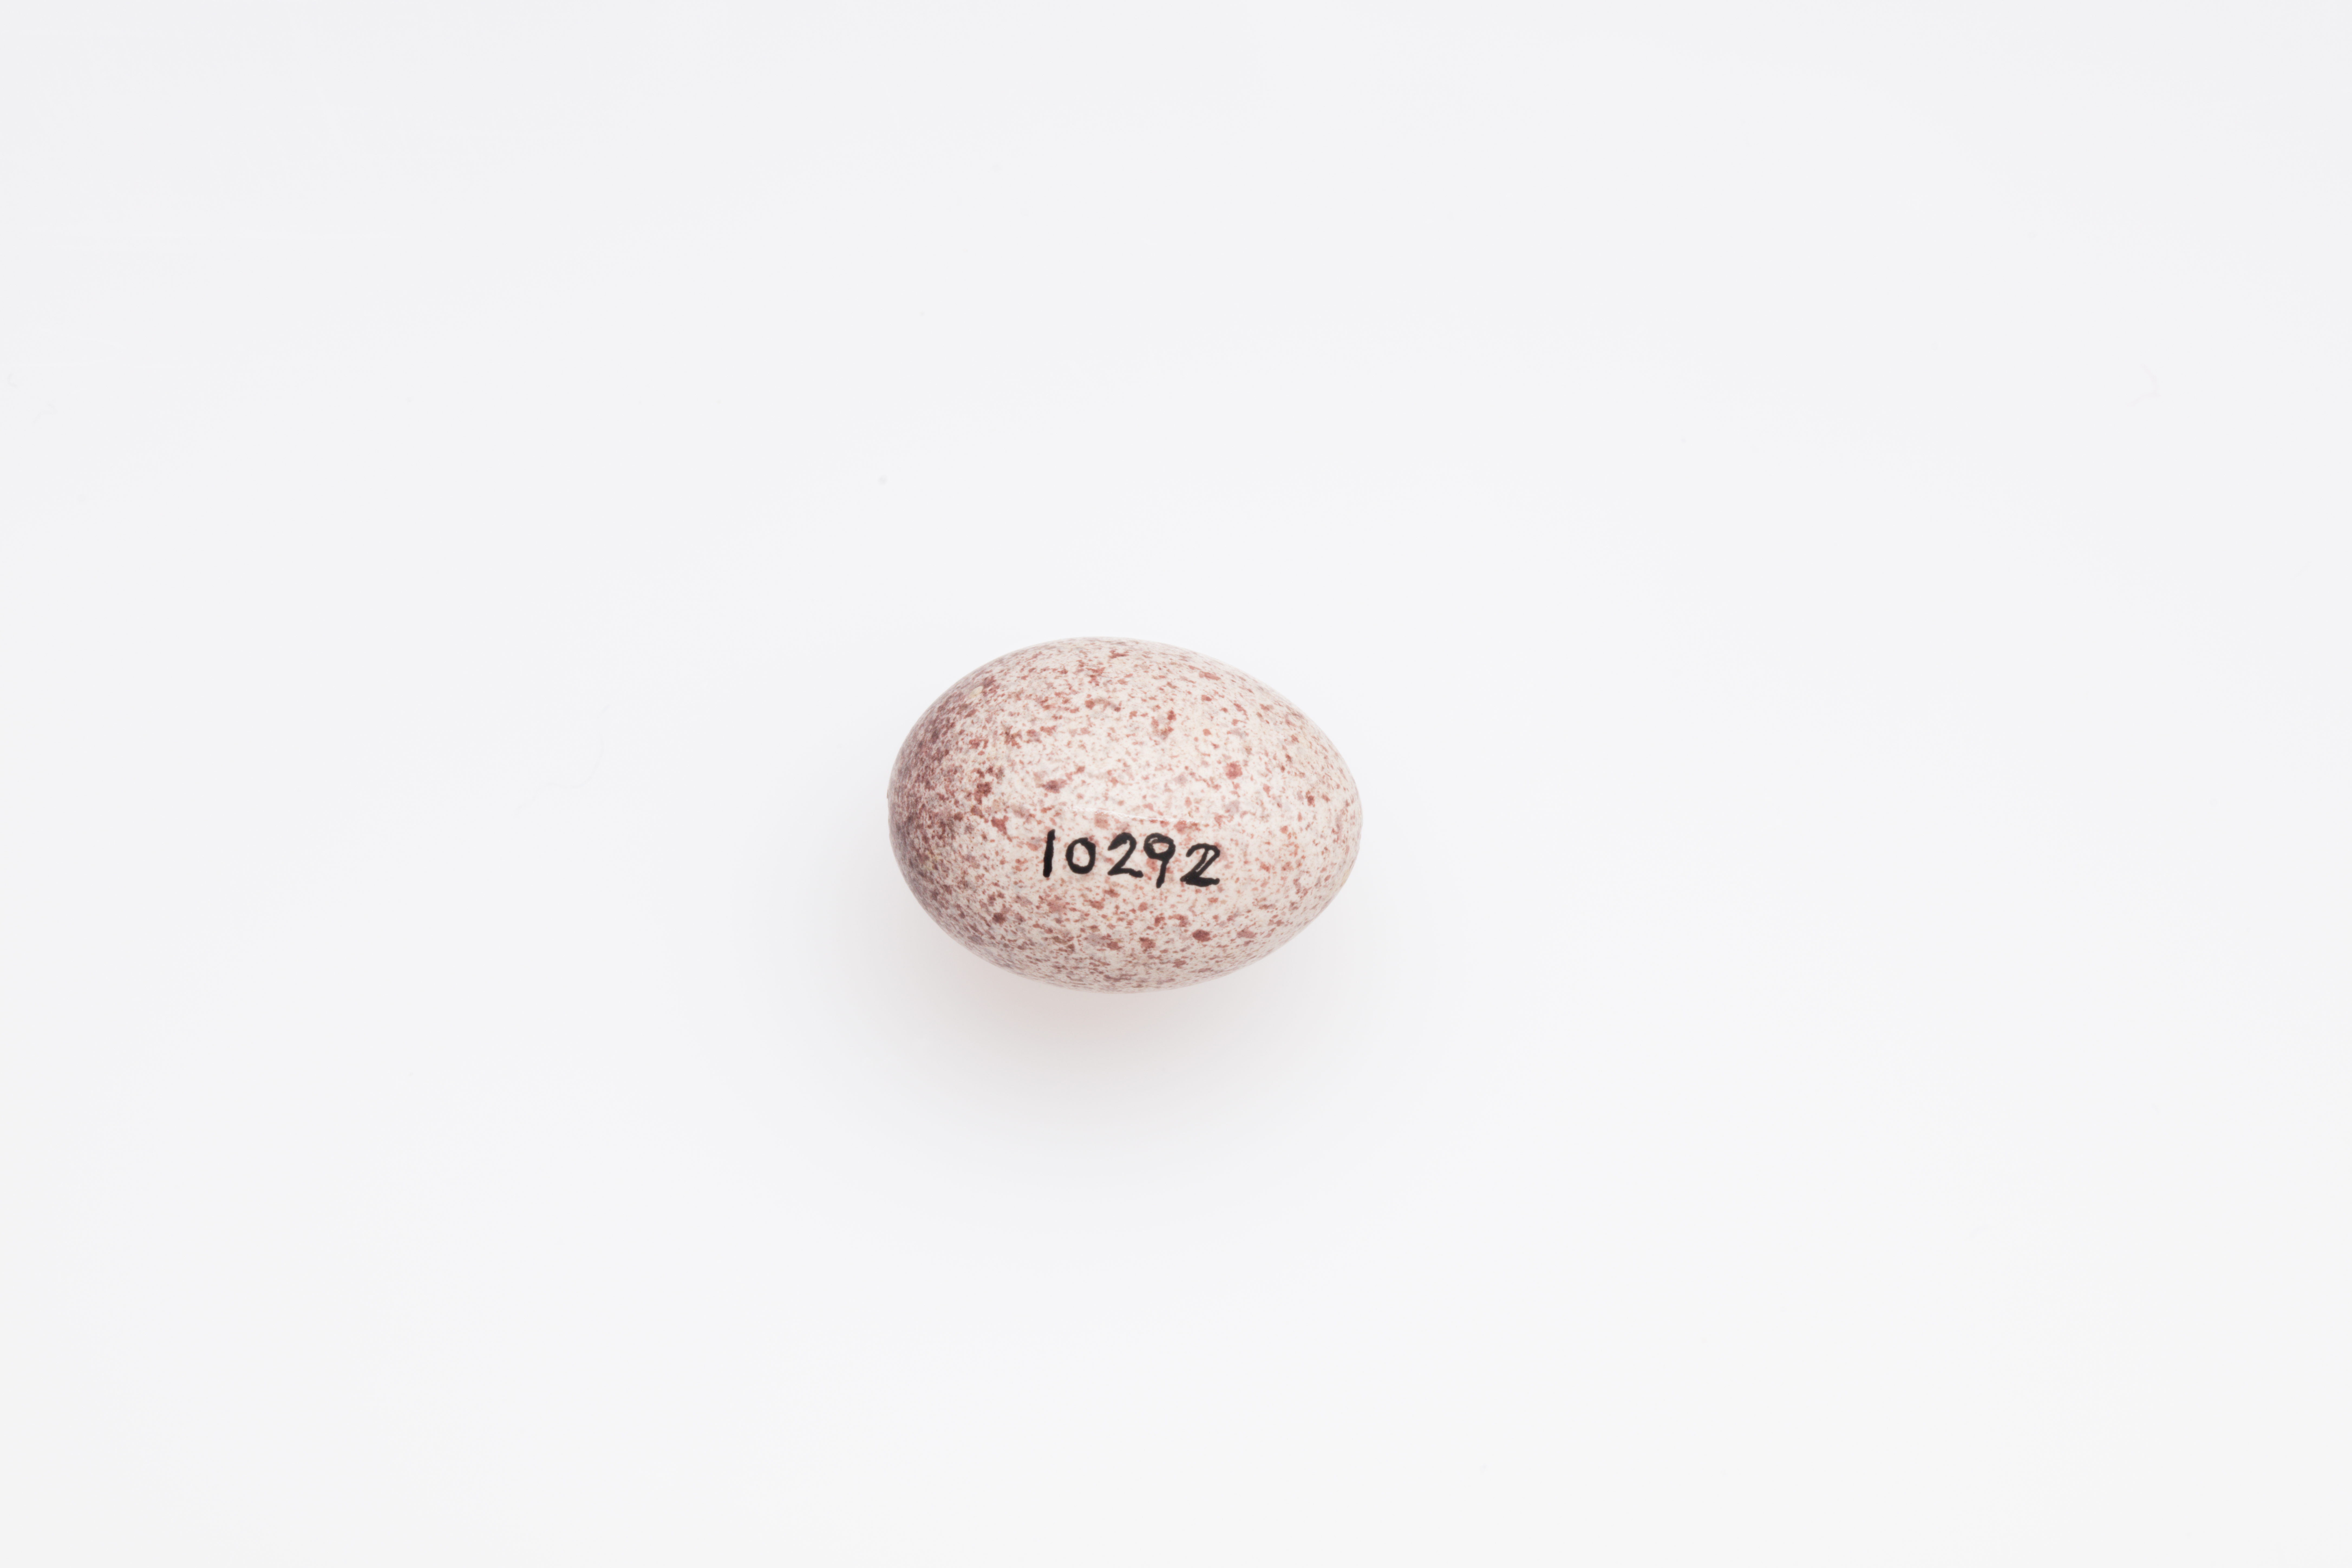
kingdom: Animalia
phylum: Chordata
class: Aves
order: Passeriformes
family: Locustellidae
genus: Megalurus
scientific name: Megalurus punctatus
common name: New zealand fernbird
